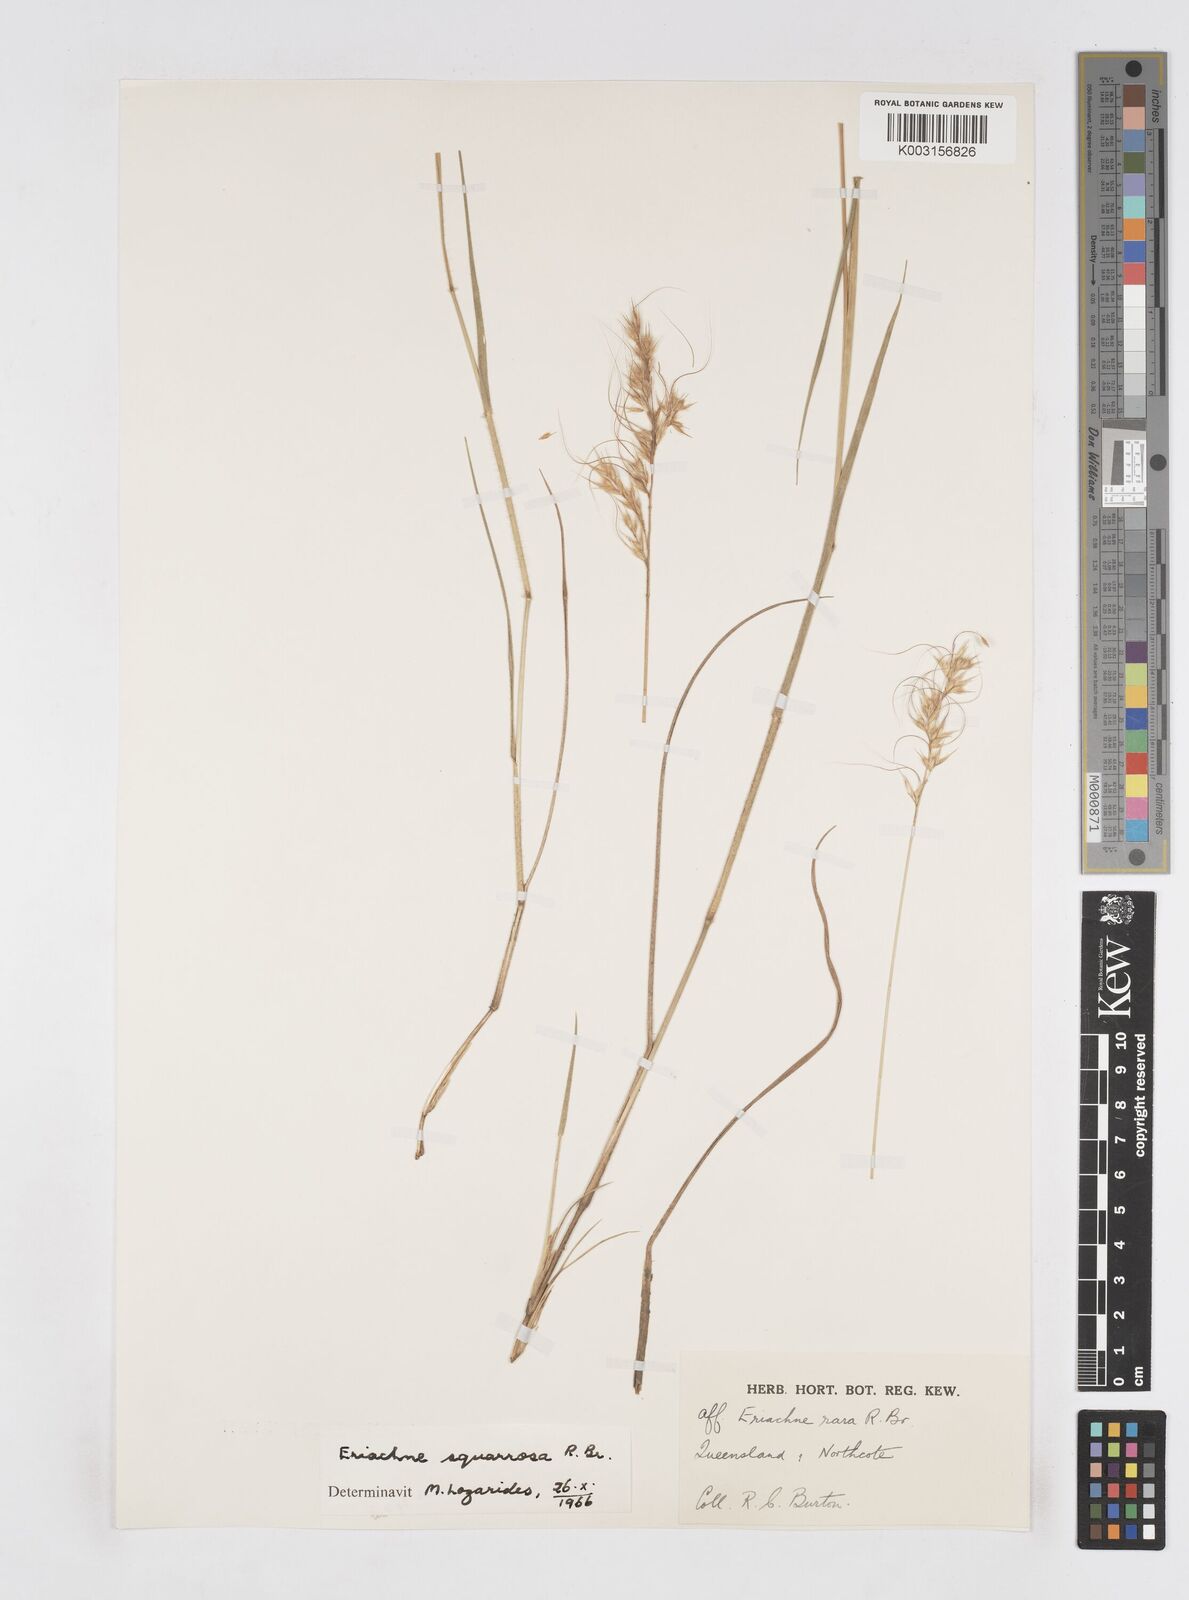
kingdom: Plantae
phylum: Tracheophyta
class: Liliopsida
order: Poales
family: Poaceae
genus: Eriachne
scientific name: Eriachne squarrosa
